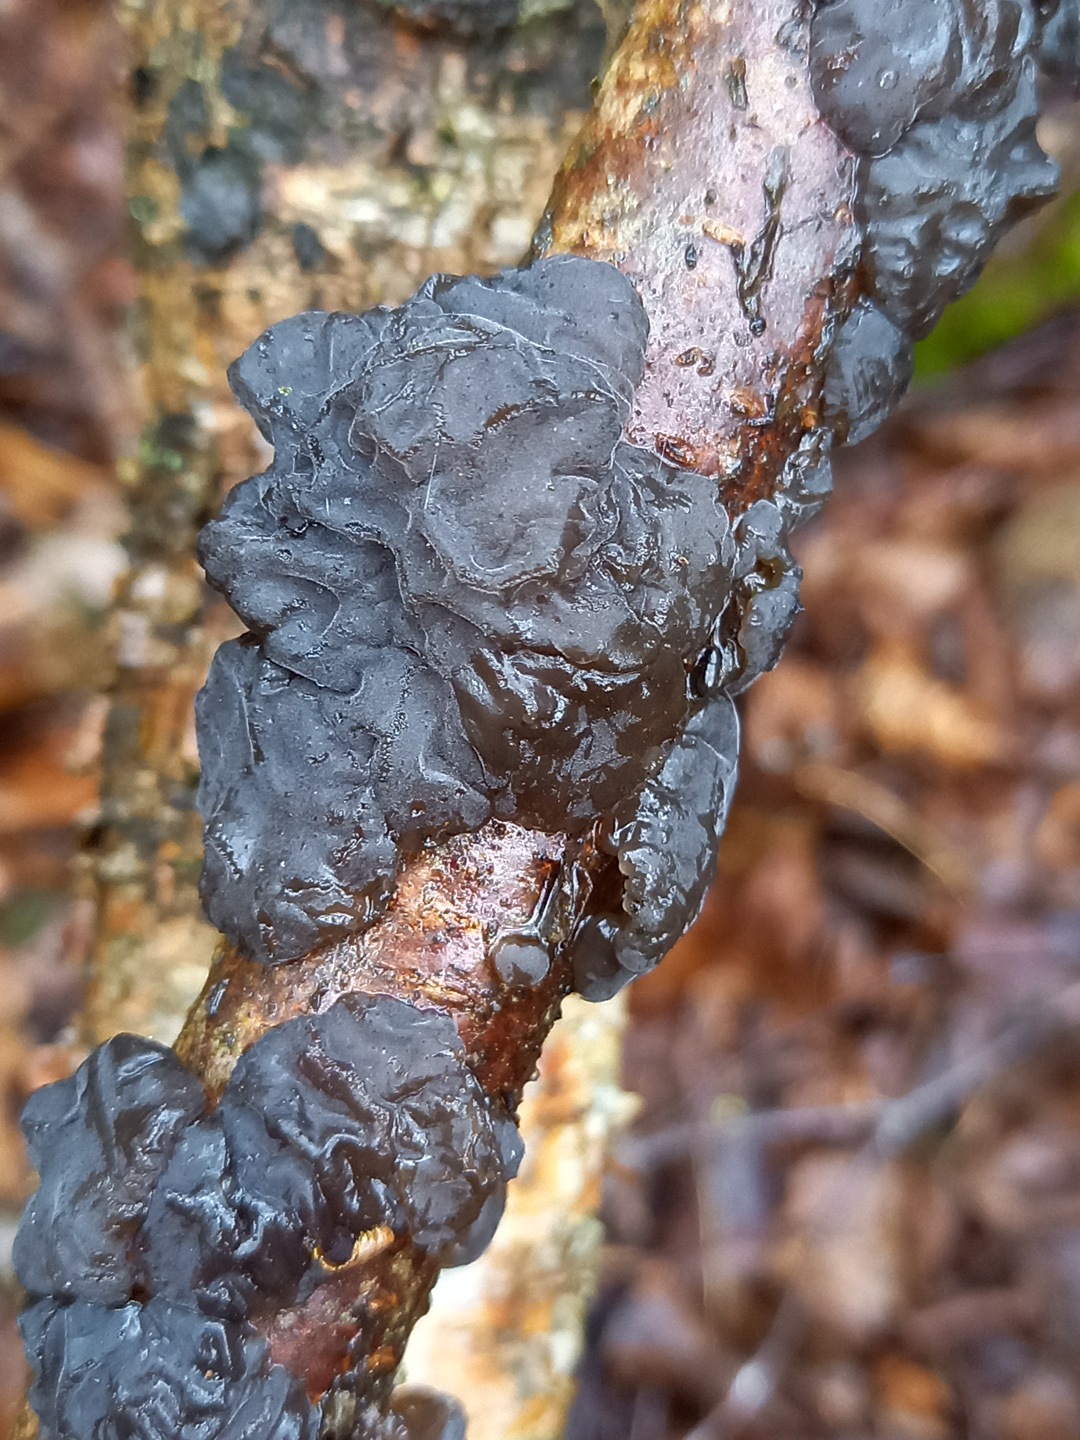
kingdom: Fungi
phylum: Basidiomycota
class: Agaricomycetes
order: Auriculariales
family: Auriculariaceae
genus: Exidia
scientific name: Exidia nigricans
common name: almindelig bævretop
